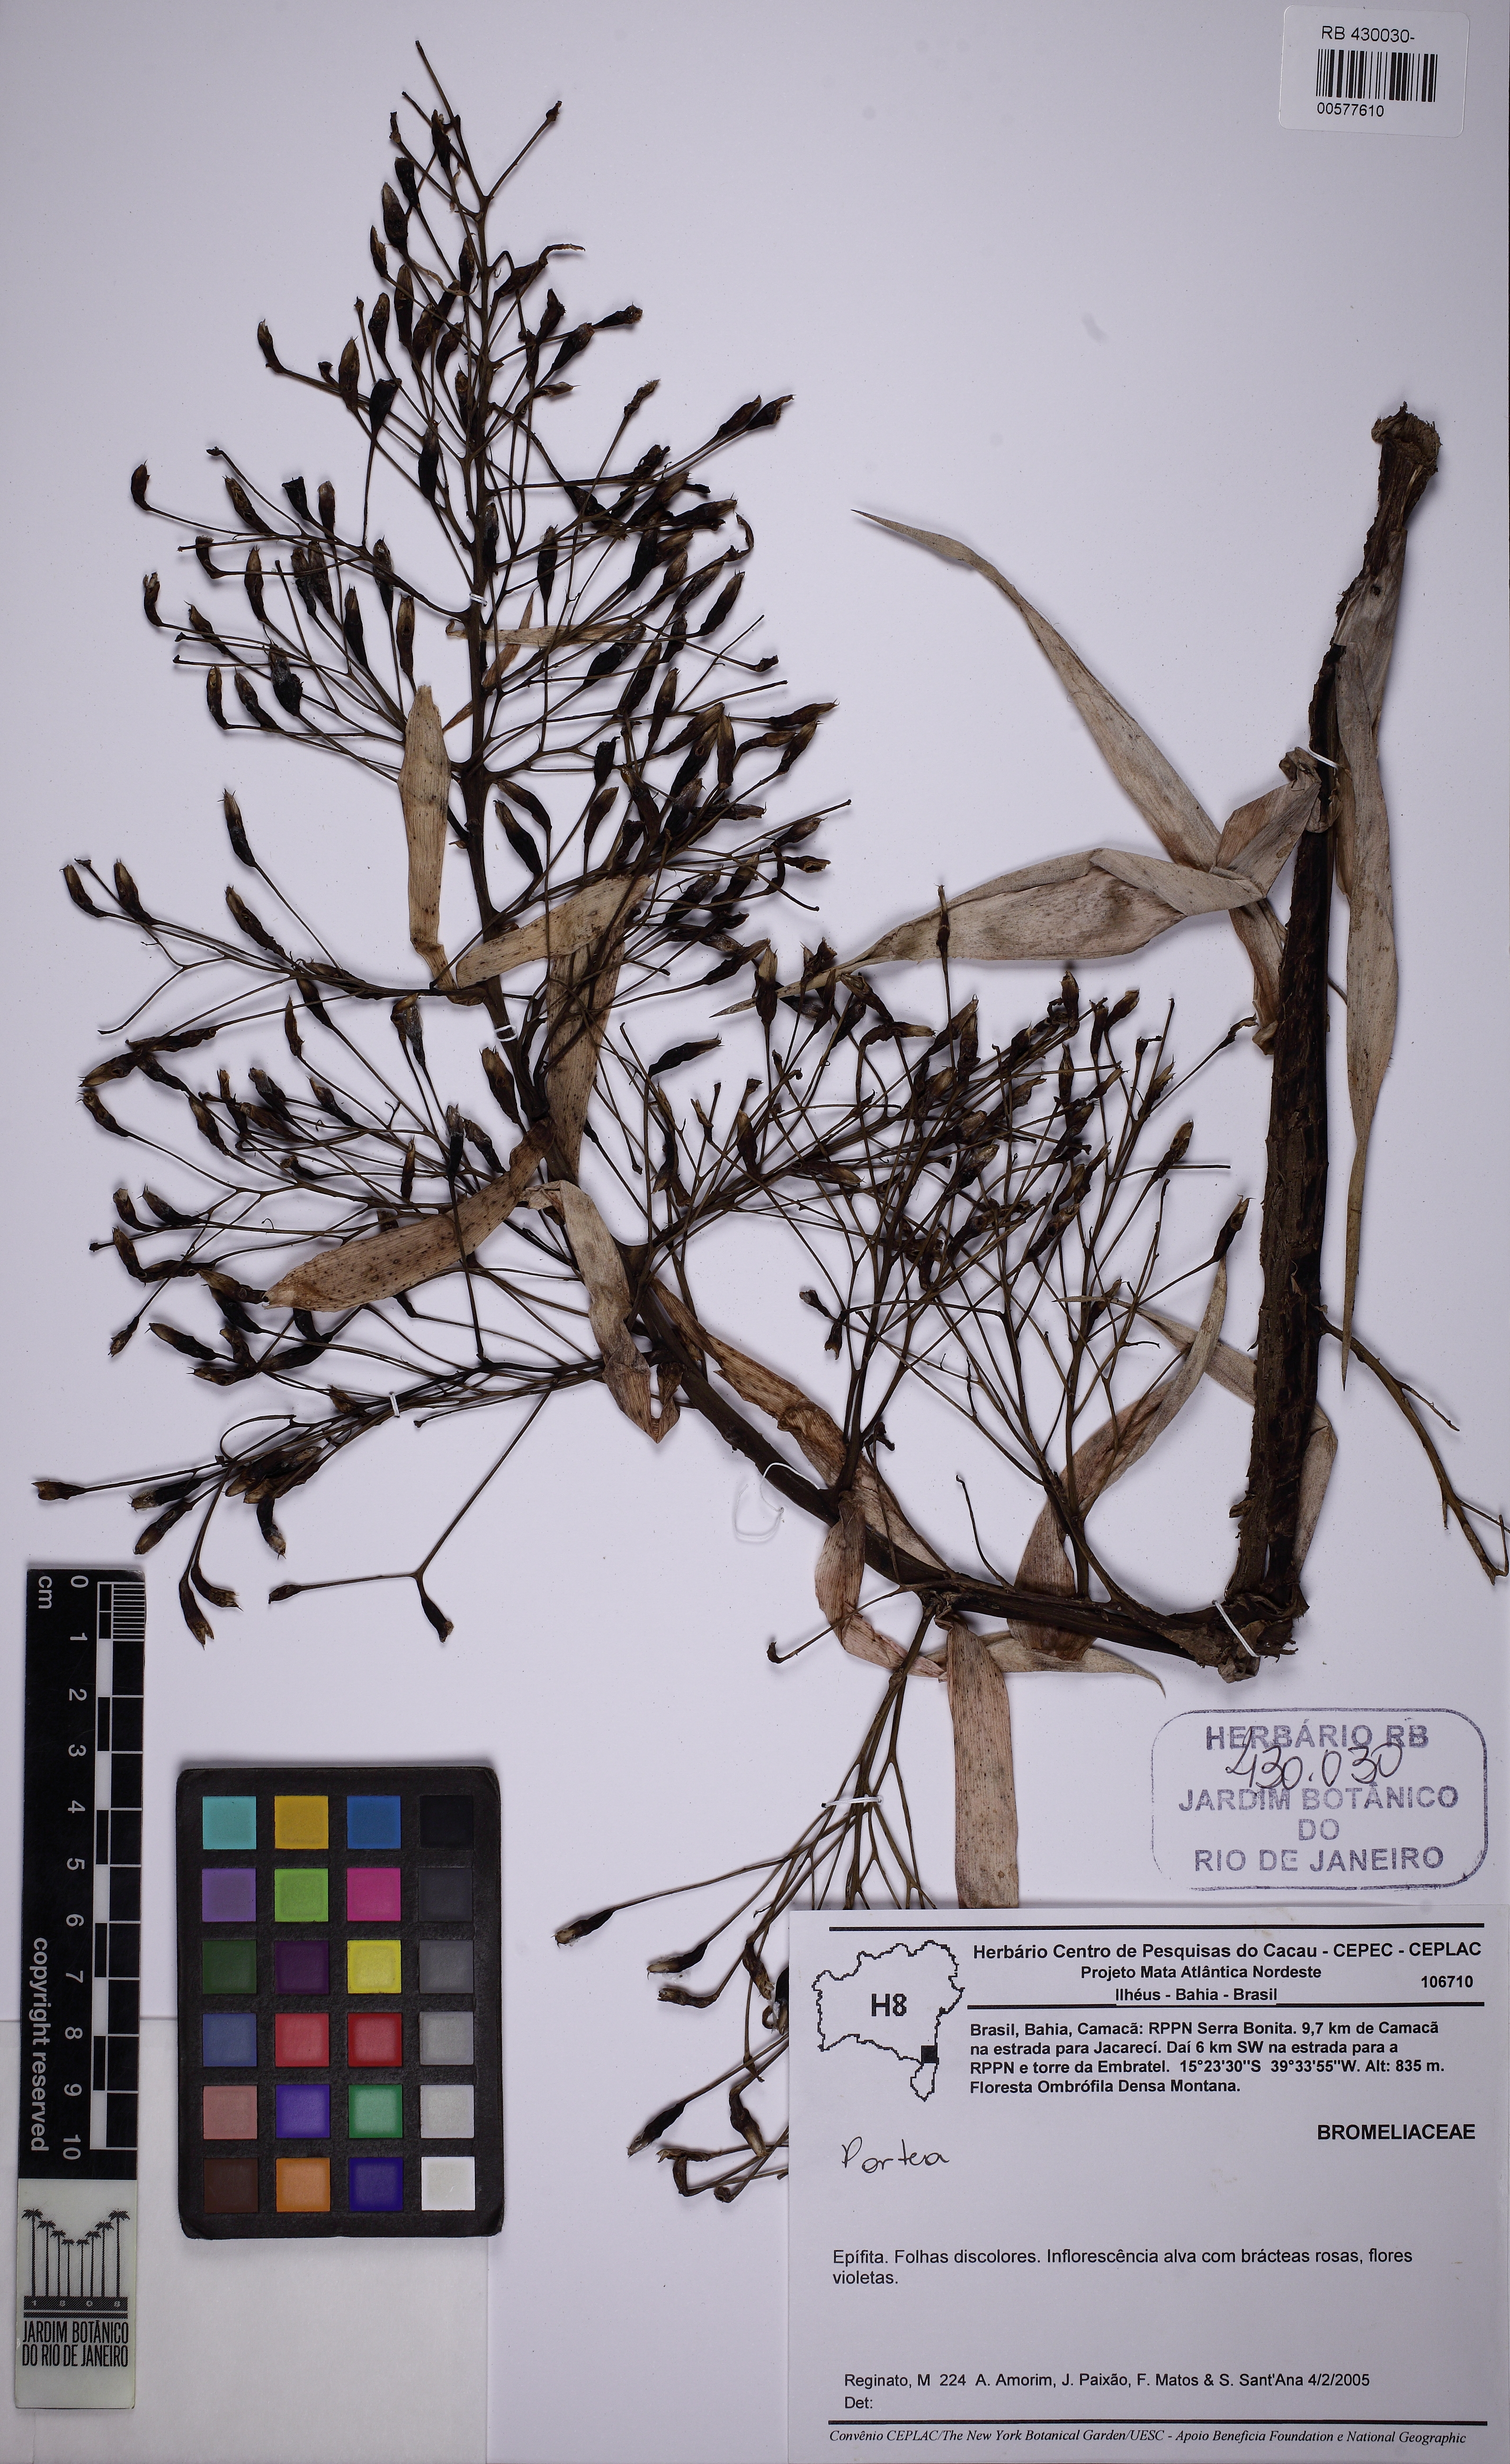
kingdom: Plantae
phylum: Tracheophyta
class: Liliopsida
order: Poales
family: Bromeliaceae
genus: Portea
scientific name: Portea
